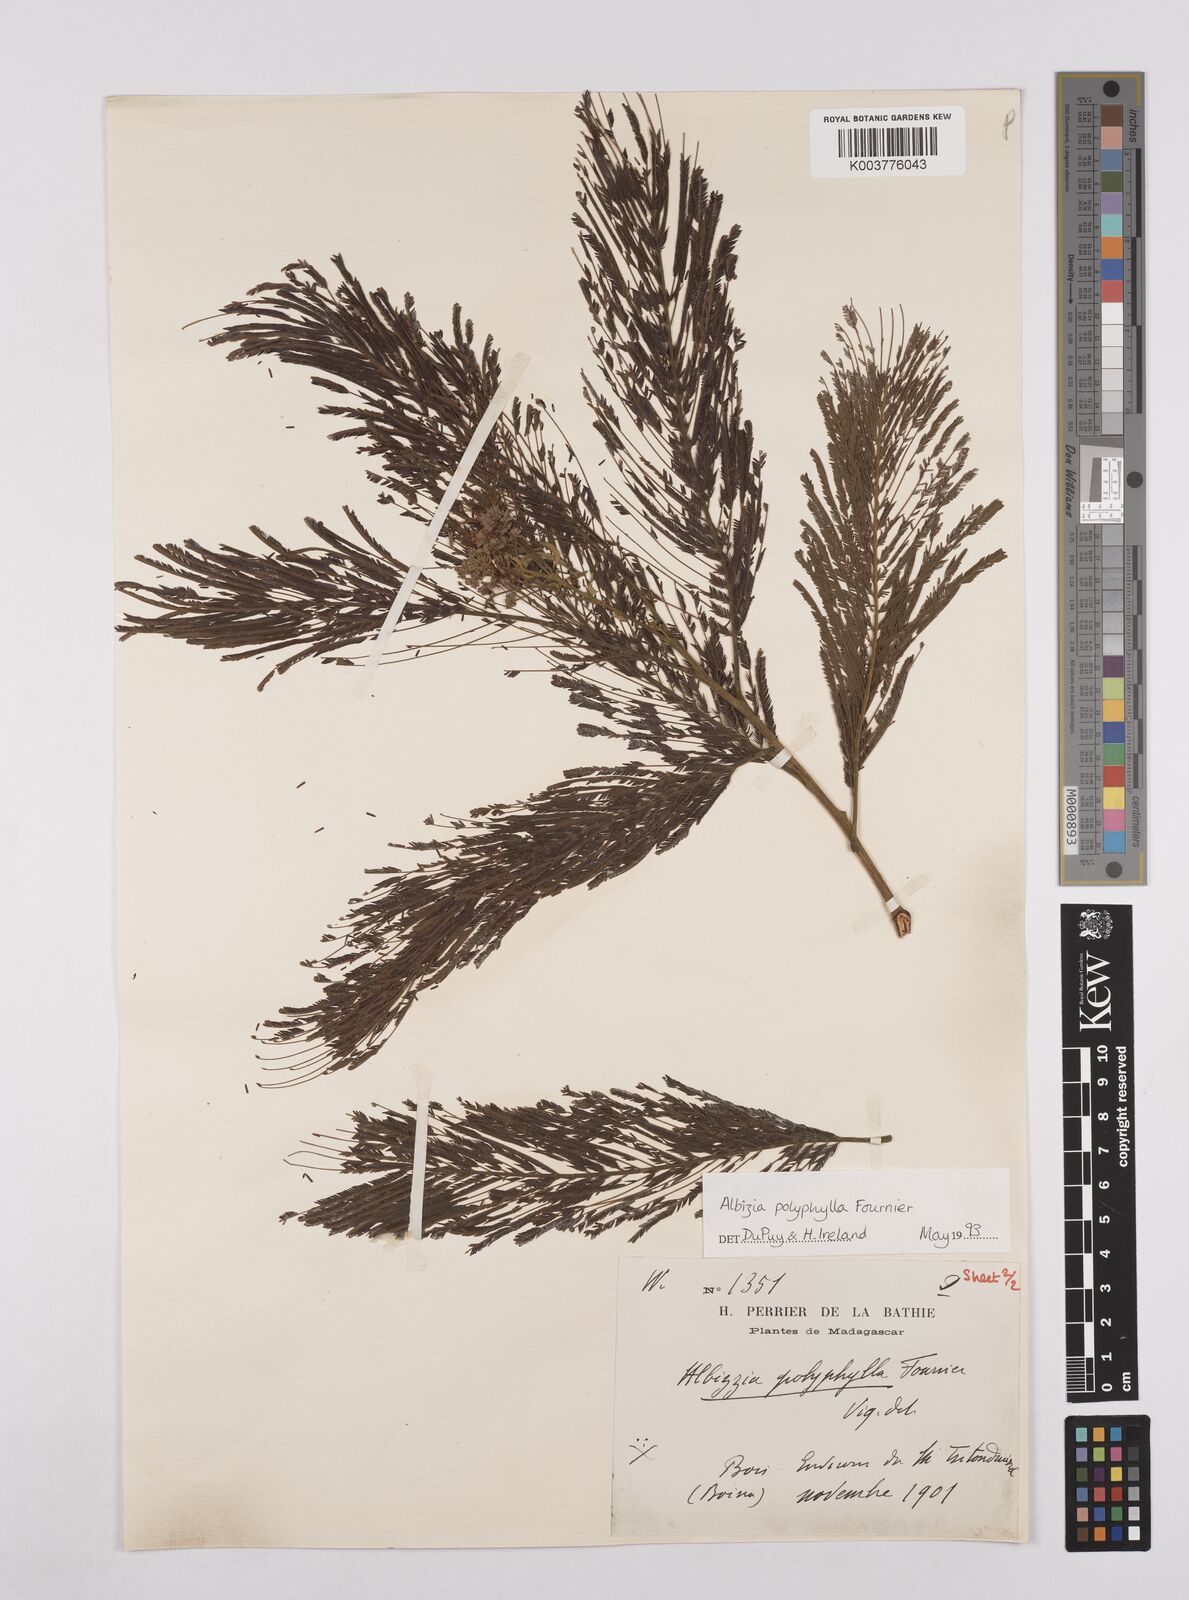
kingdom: Plantae
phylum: Tracheophyta
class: Magnoliopsida
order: Fabales
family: Fabaceae
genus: Albizia
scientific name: Albizia polyphylla
